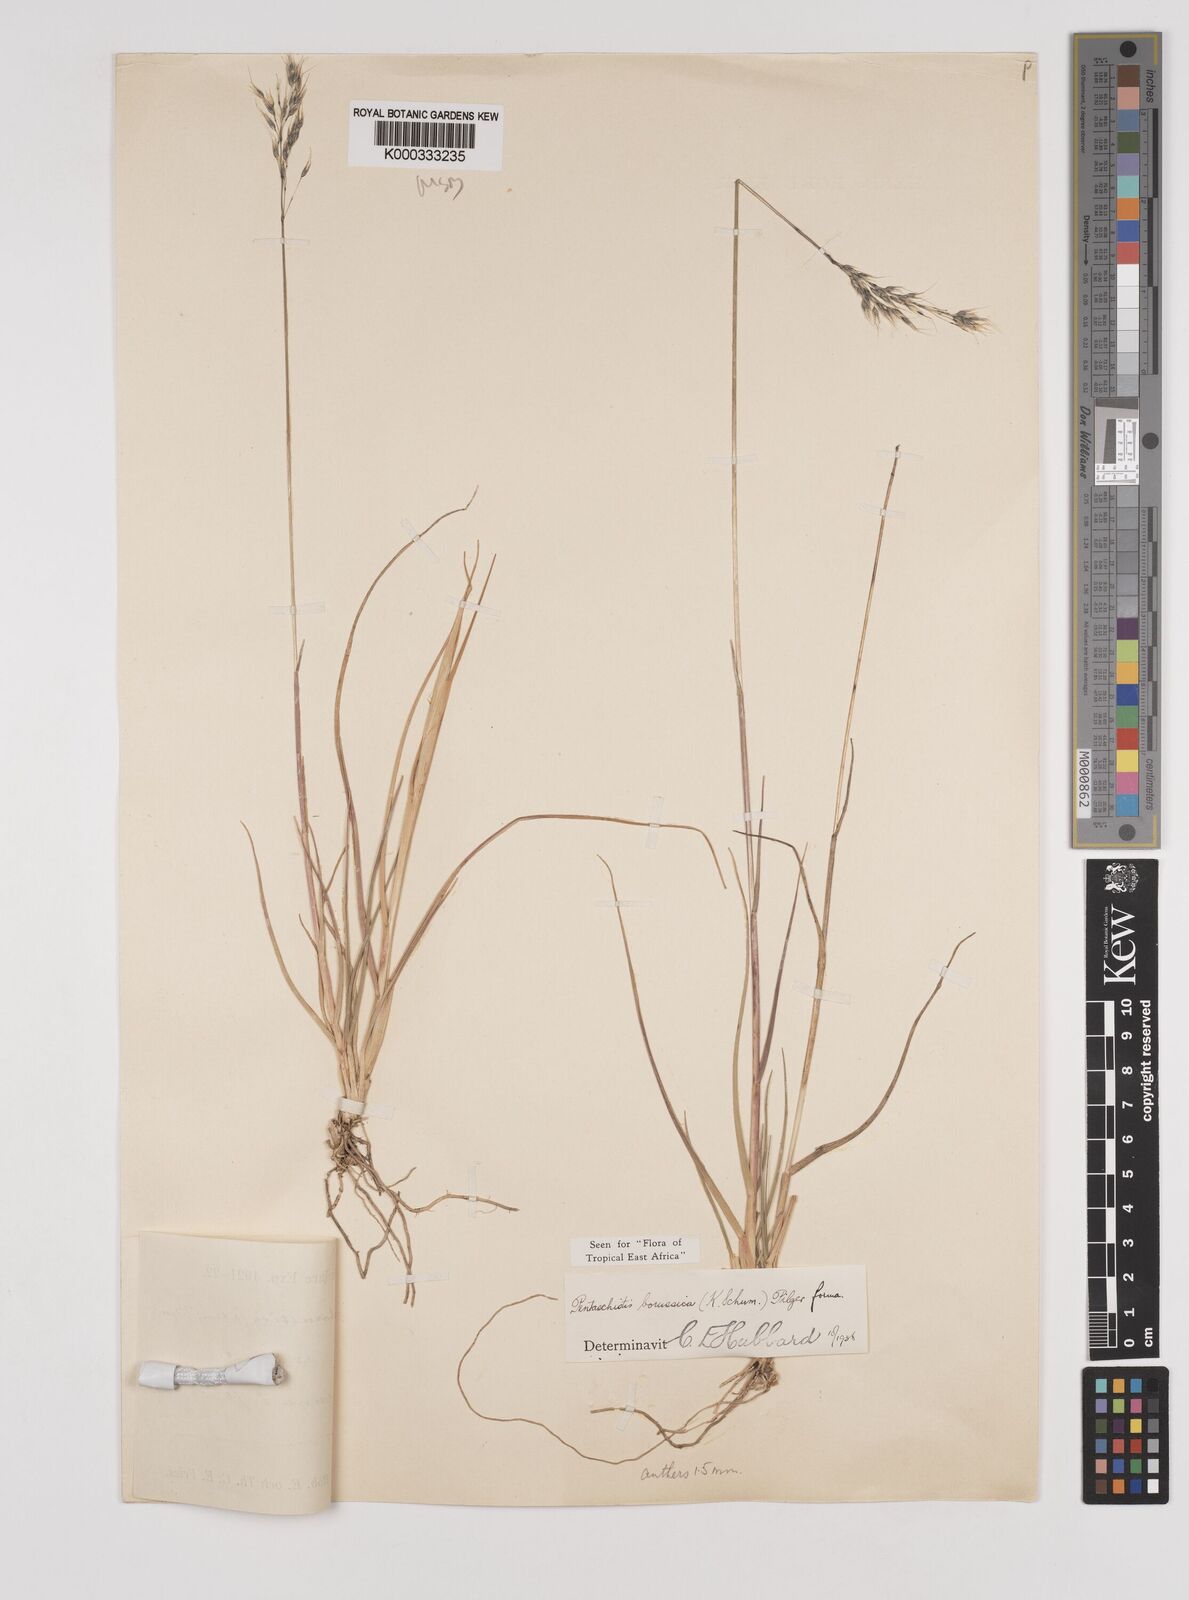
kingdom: Plantae
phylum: Tracheophyta
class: Liliopsida
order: Poales
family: Poaceae
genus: Pentameris
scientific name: Pentameris borussica
